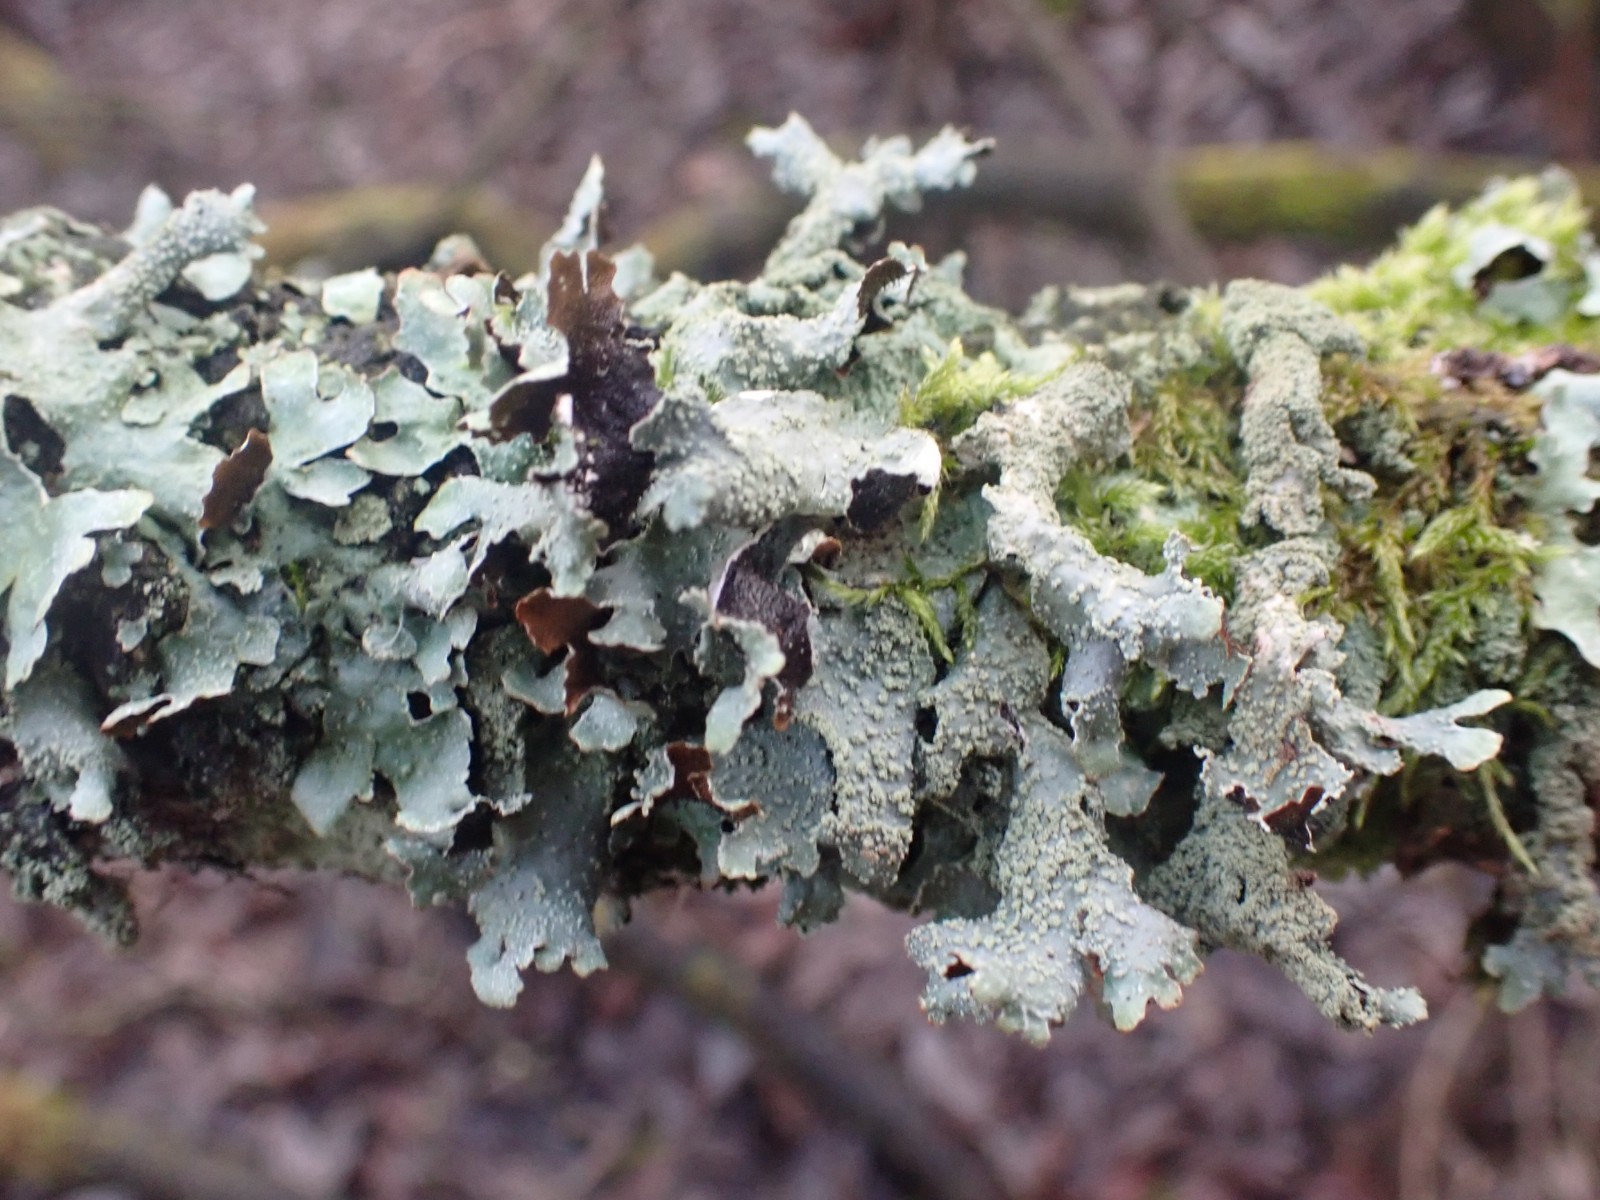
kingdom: Fungi
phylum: Ascomycota
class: Lecanoromycetes
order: Lecanorales
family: Parmeliaceae
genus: Parmelia
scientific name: Parmelia submontana
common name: langlobet skållav
